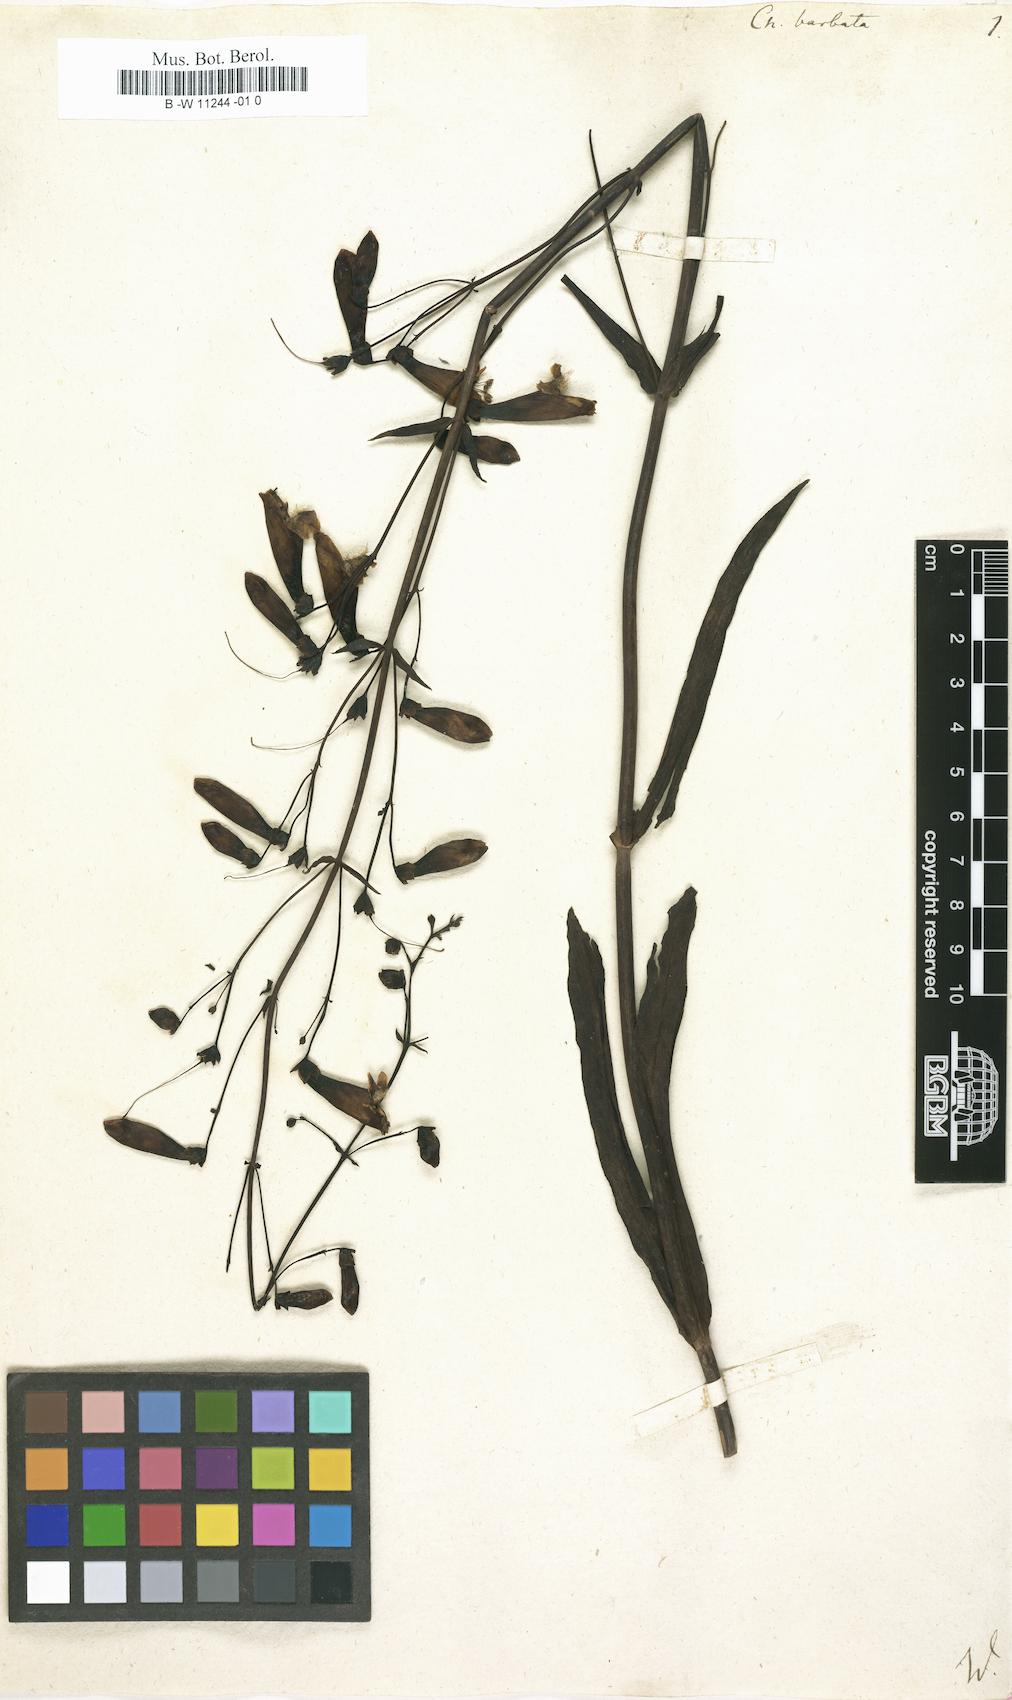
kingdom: Plantae
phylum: Tracheophyta
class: Magnoliopsida
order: Lamiales
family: Plantaginaceae
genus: Penstemon
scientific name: Penstemon barbatus
